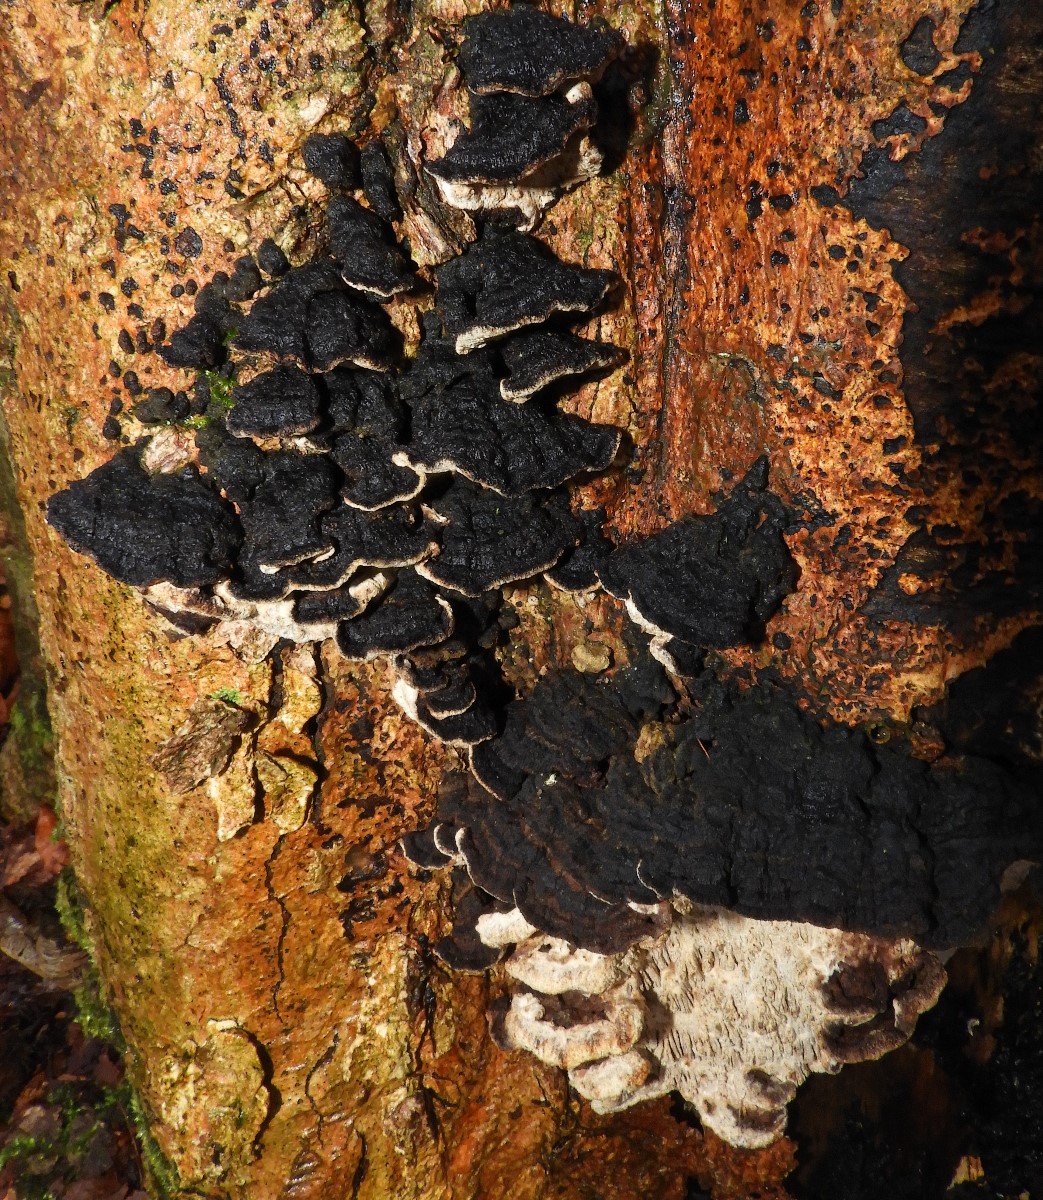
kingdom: Fungi
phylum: Basidiomycota
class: Agaricomycetes
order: Polyporales
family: Polyporaceae
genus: Podofomes
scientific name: Podofomes mollis
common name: blød begporesvamp
